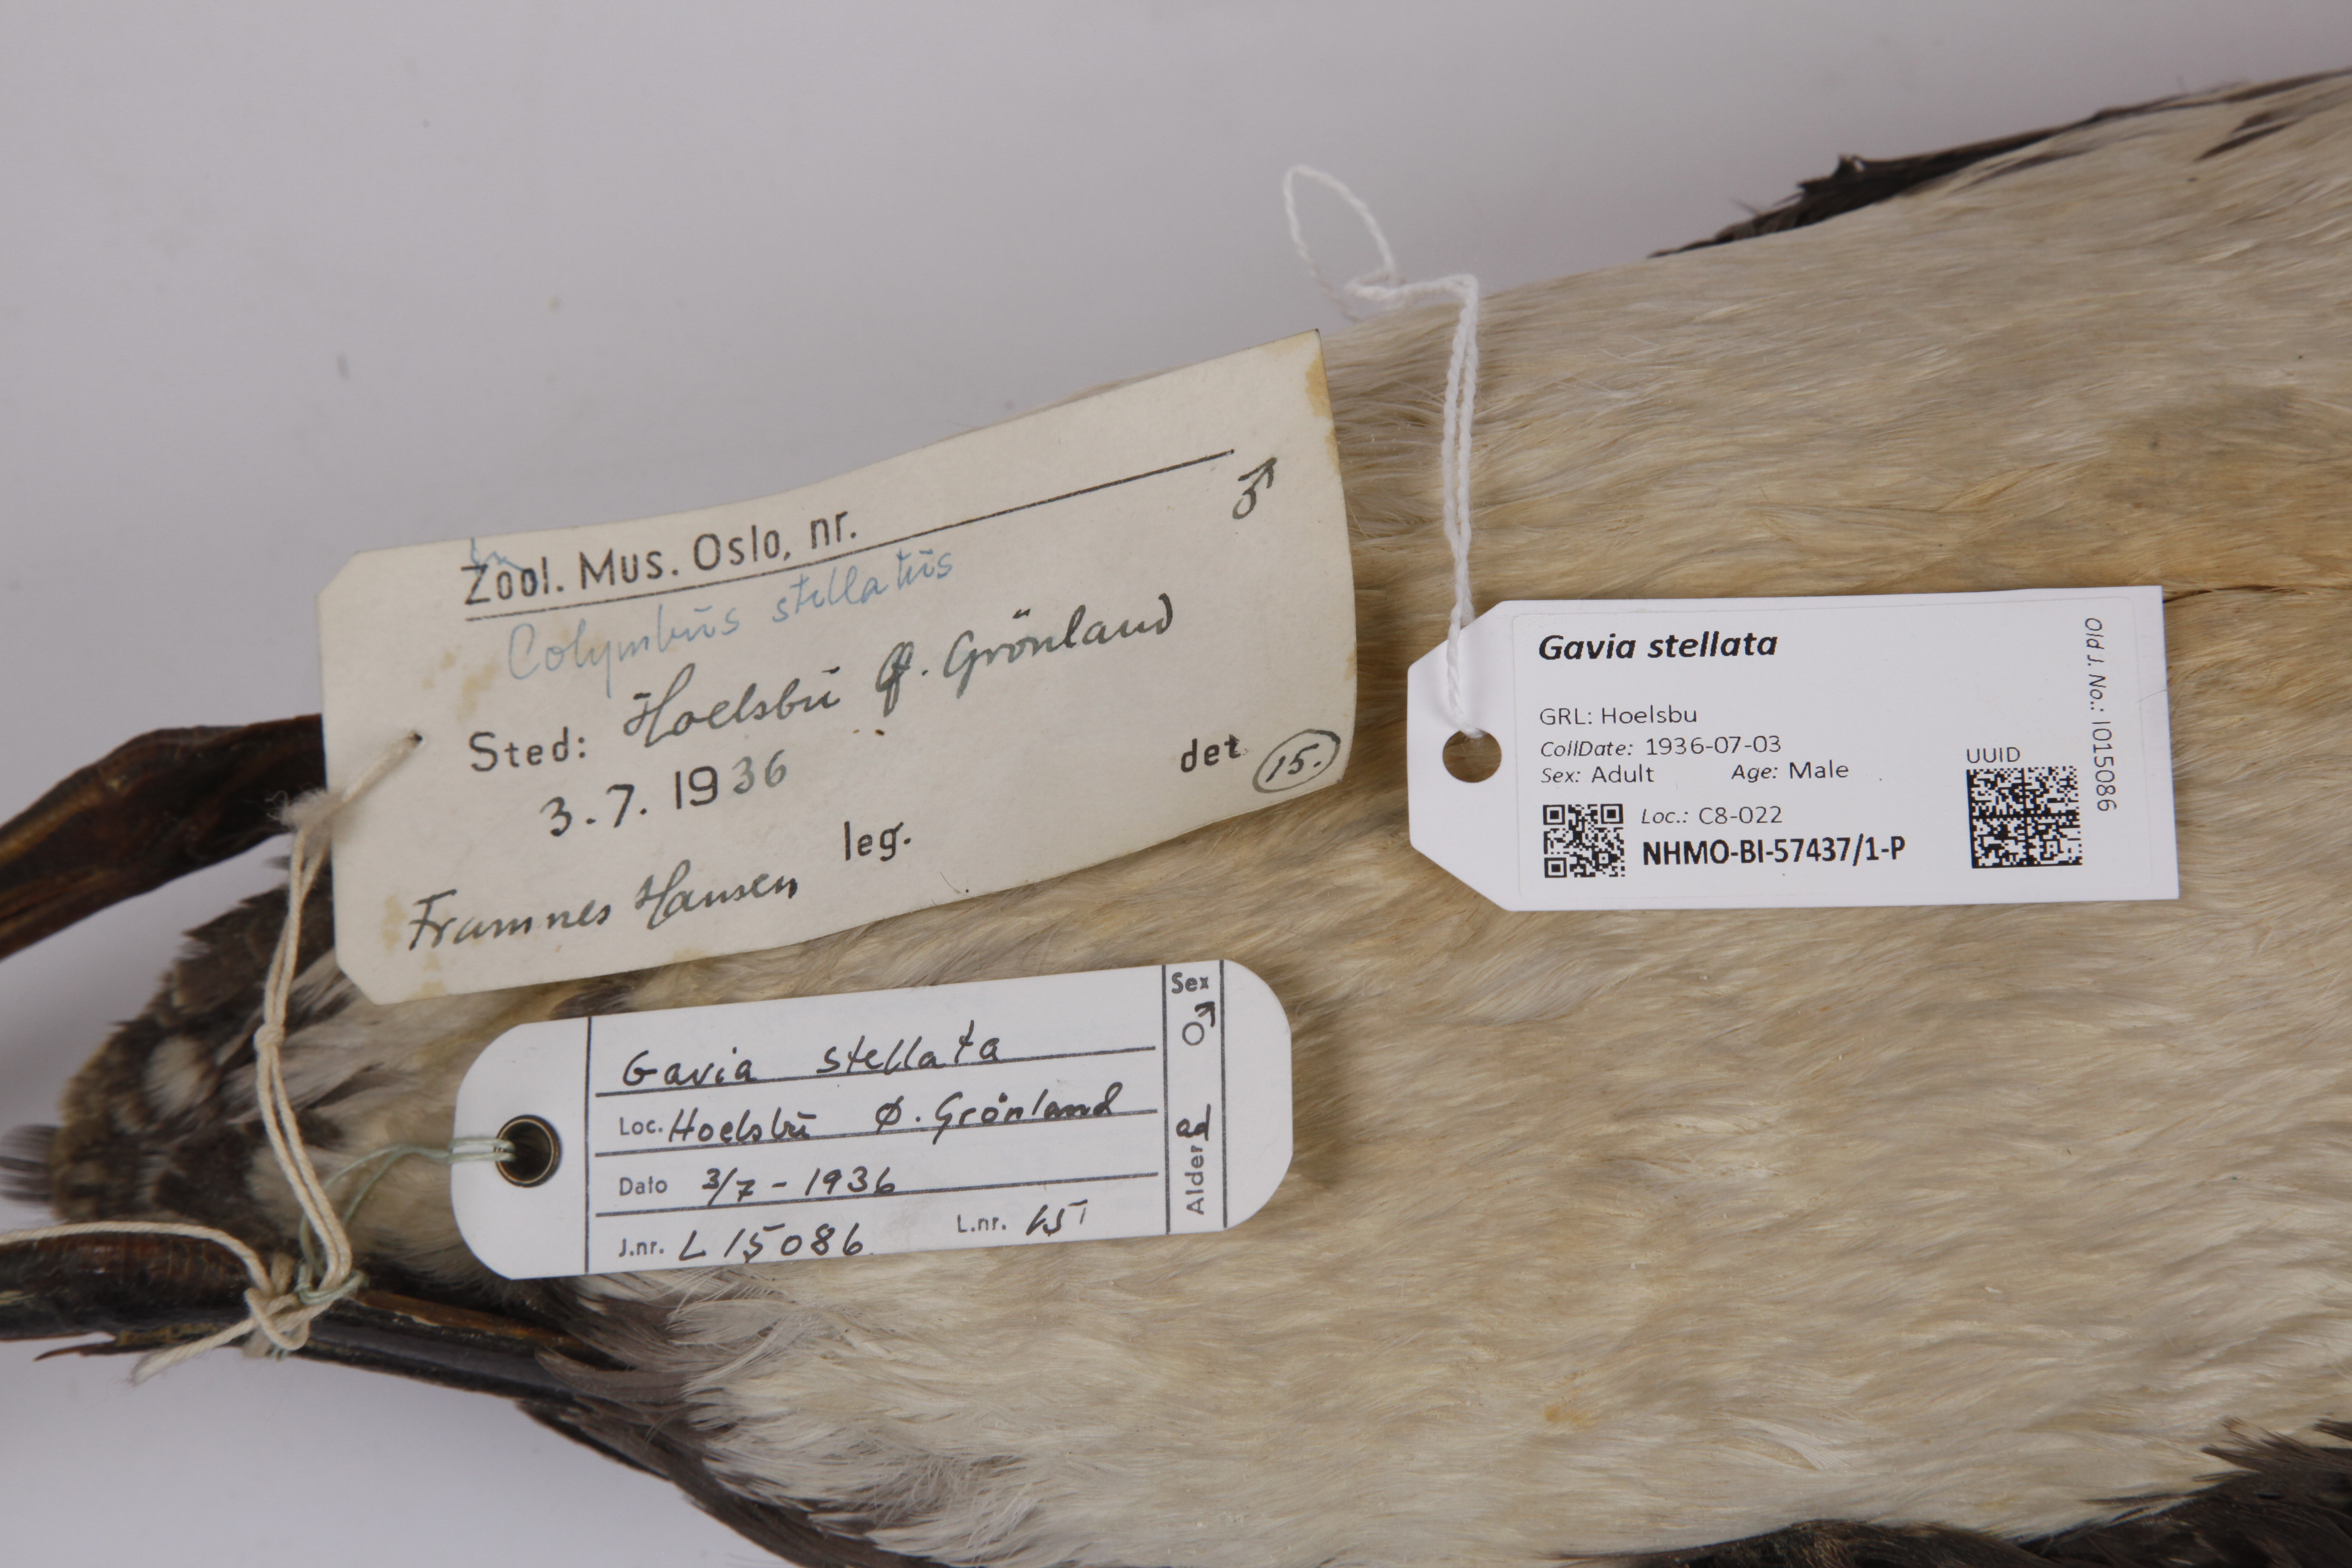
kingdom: Animalia
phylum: Chordata
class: Aves
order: Gaviiformes
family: Gaviidae
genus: Gavia
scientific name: Gavia stellata
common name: Red-throated loon
